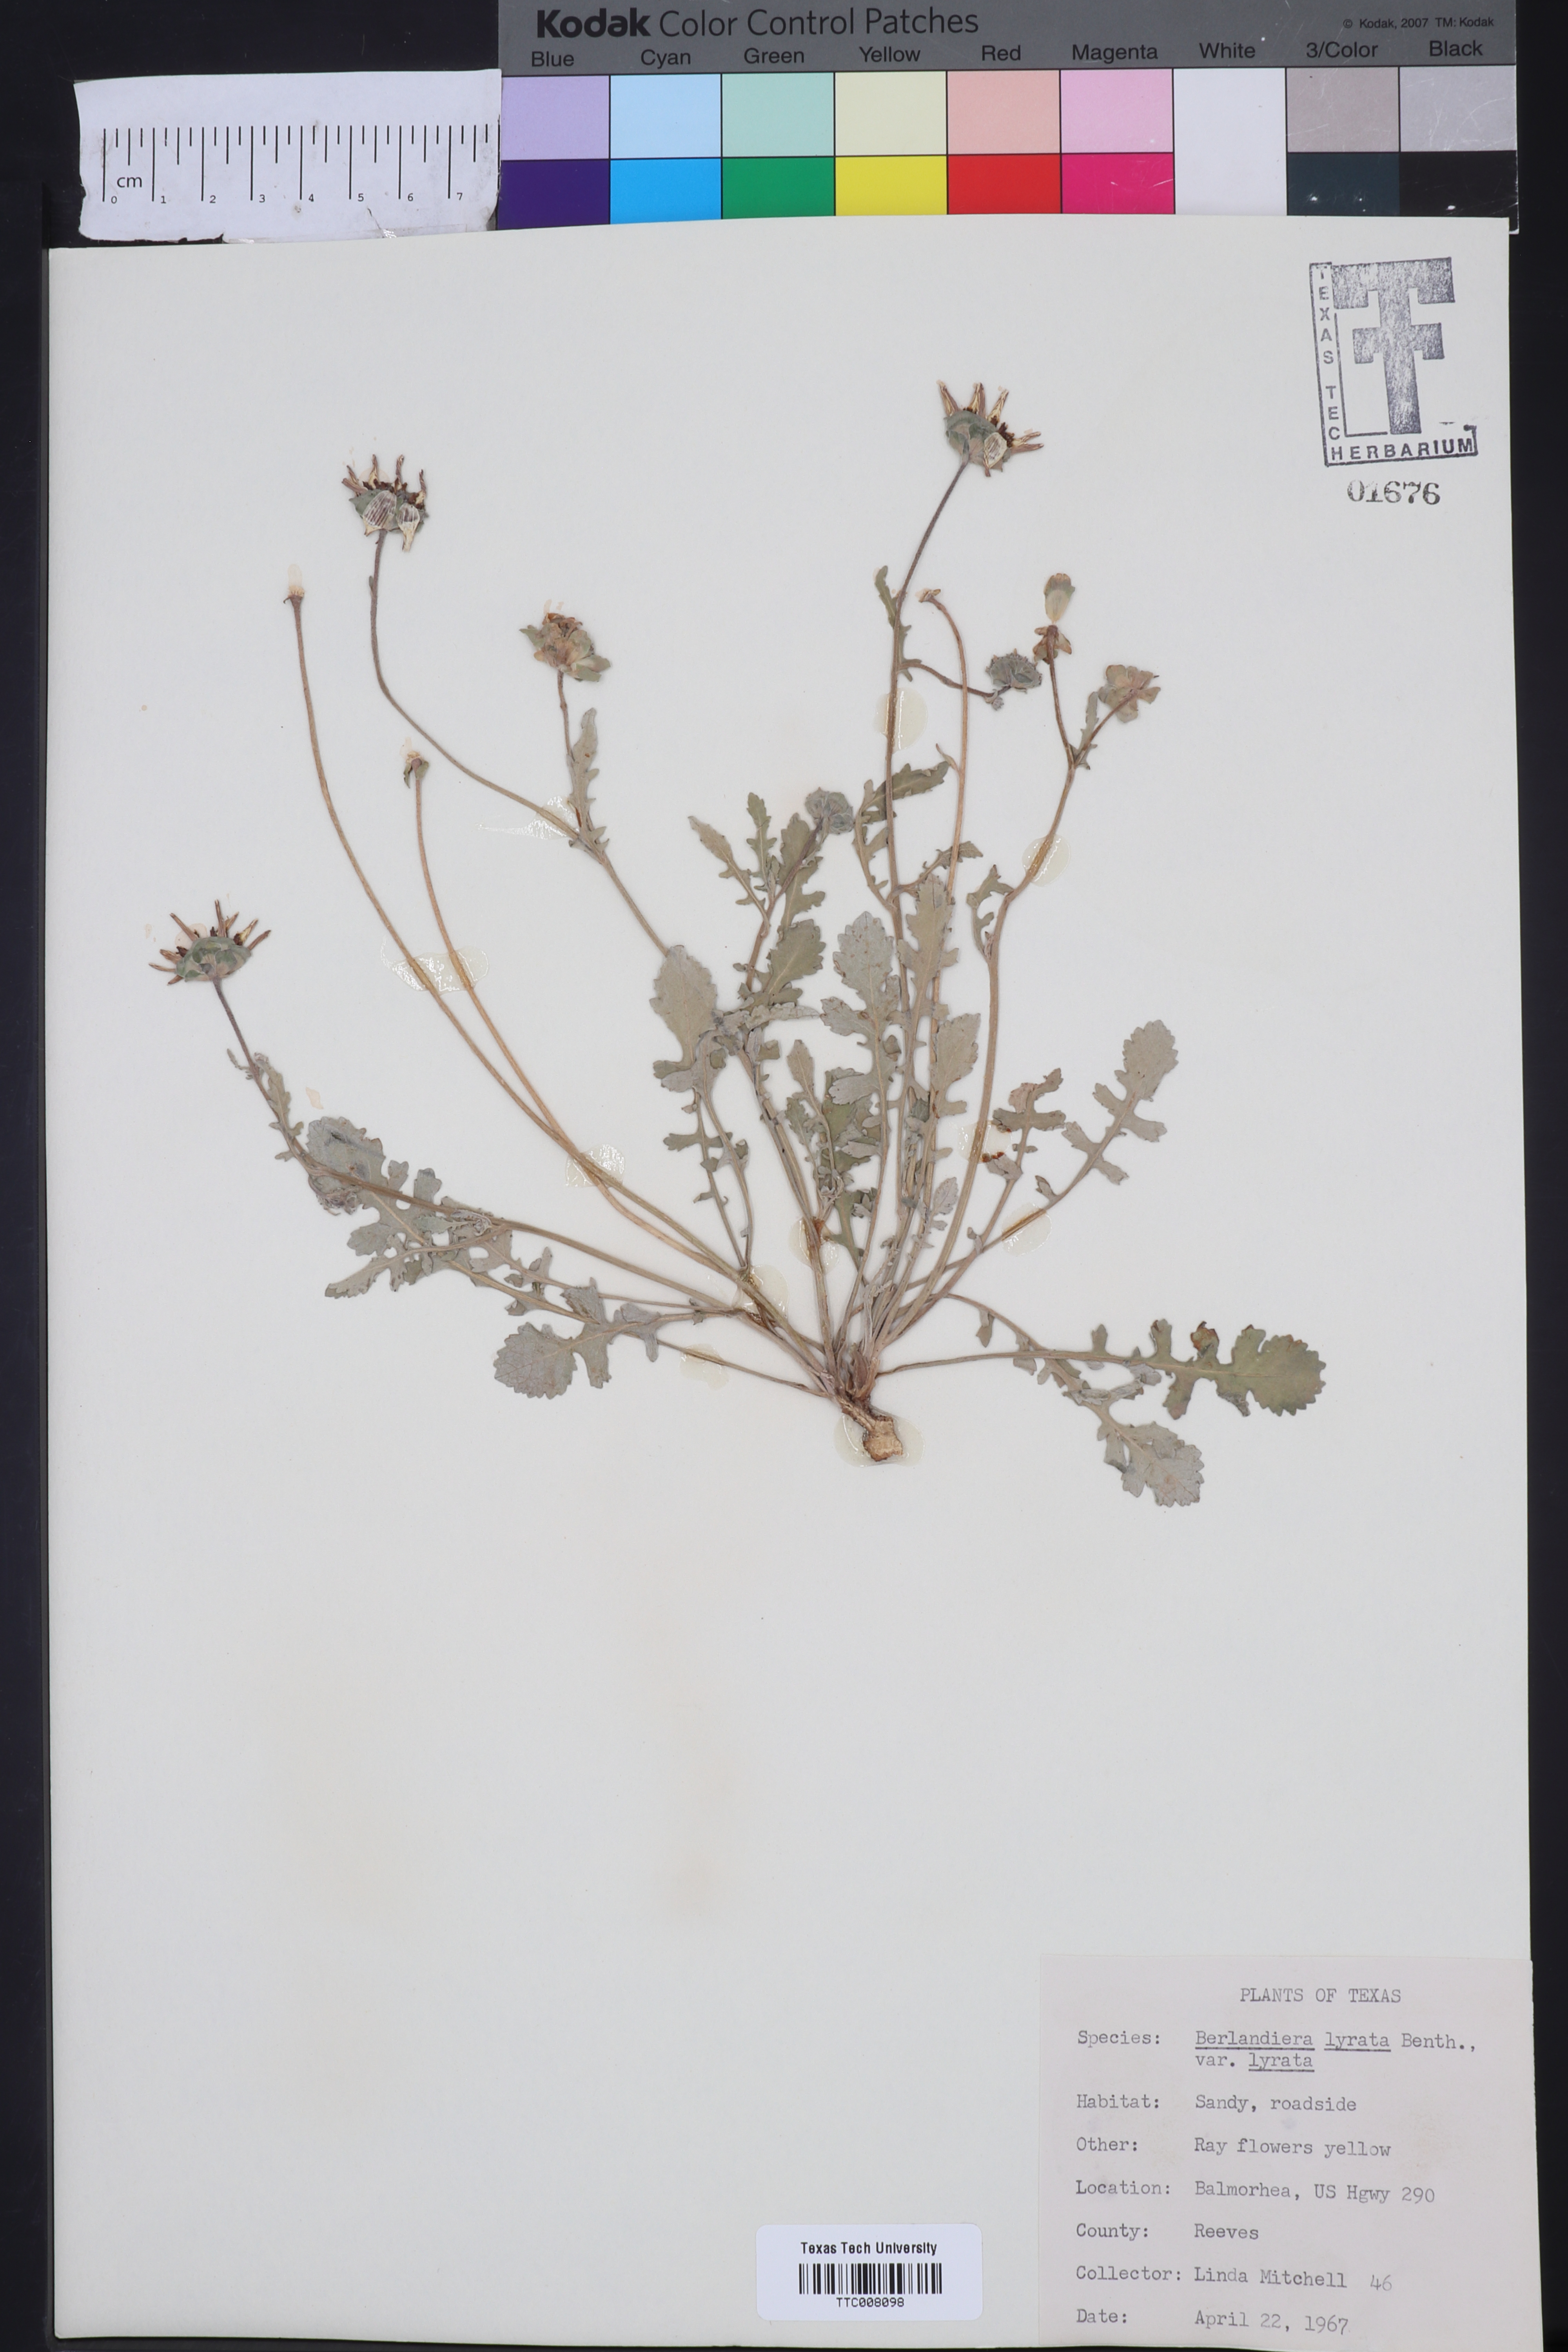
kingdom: Plantae
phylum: Tracheophyta
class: Magnoliopsida
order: Asterales
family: Asteraceae
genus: Berlandiera
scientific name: Berlandiera lyrata
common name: Chocolate-flower
